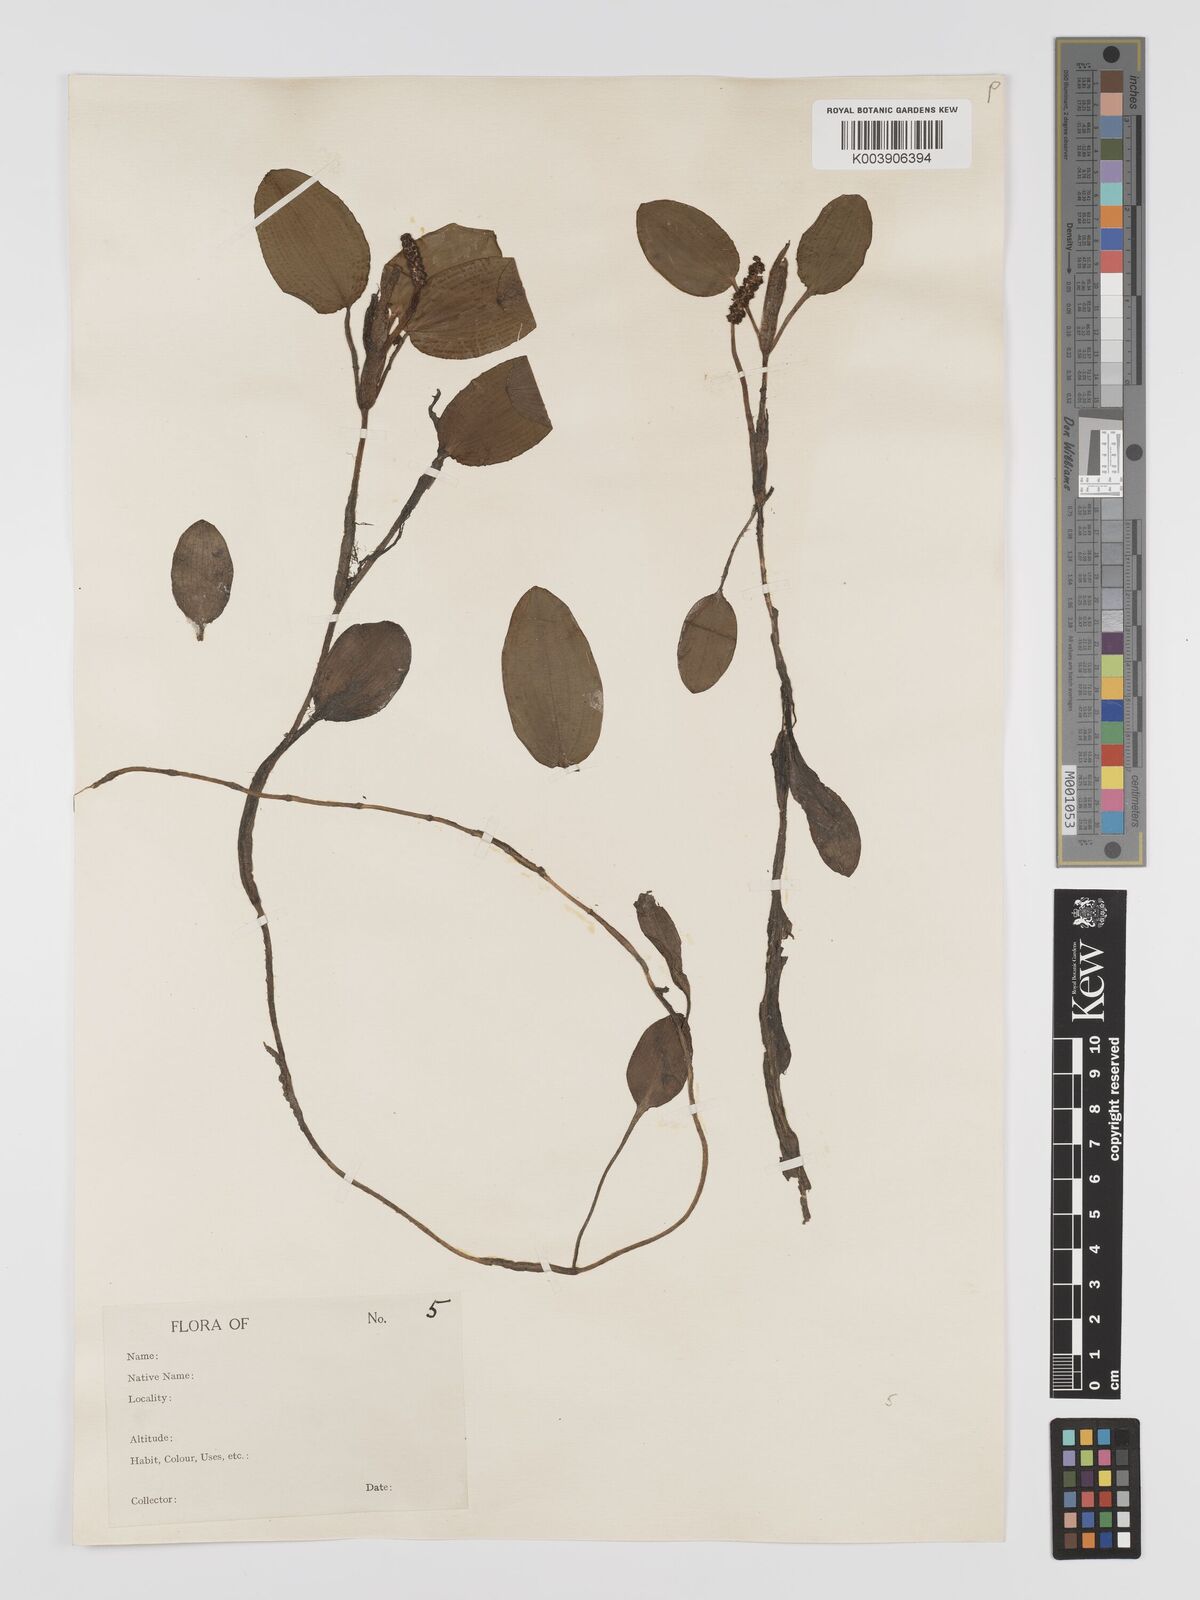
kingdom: Plantae
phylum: Tracheophyta
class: Liliopsida
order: Alismatales
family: Potamogetonaceae
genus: Potamogeton
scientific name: Potamogeton tricarinatus
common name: Pondweed
